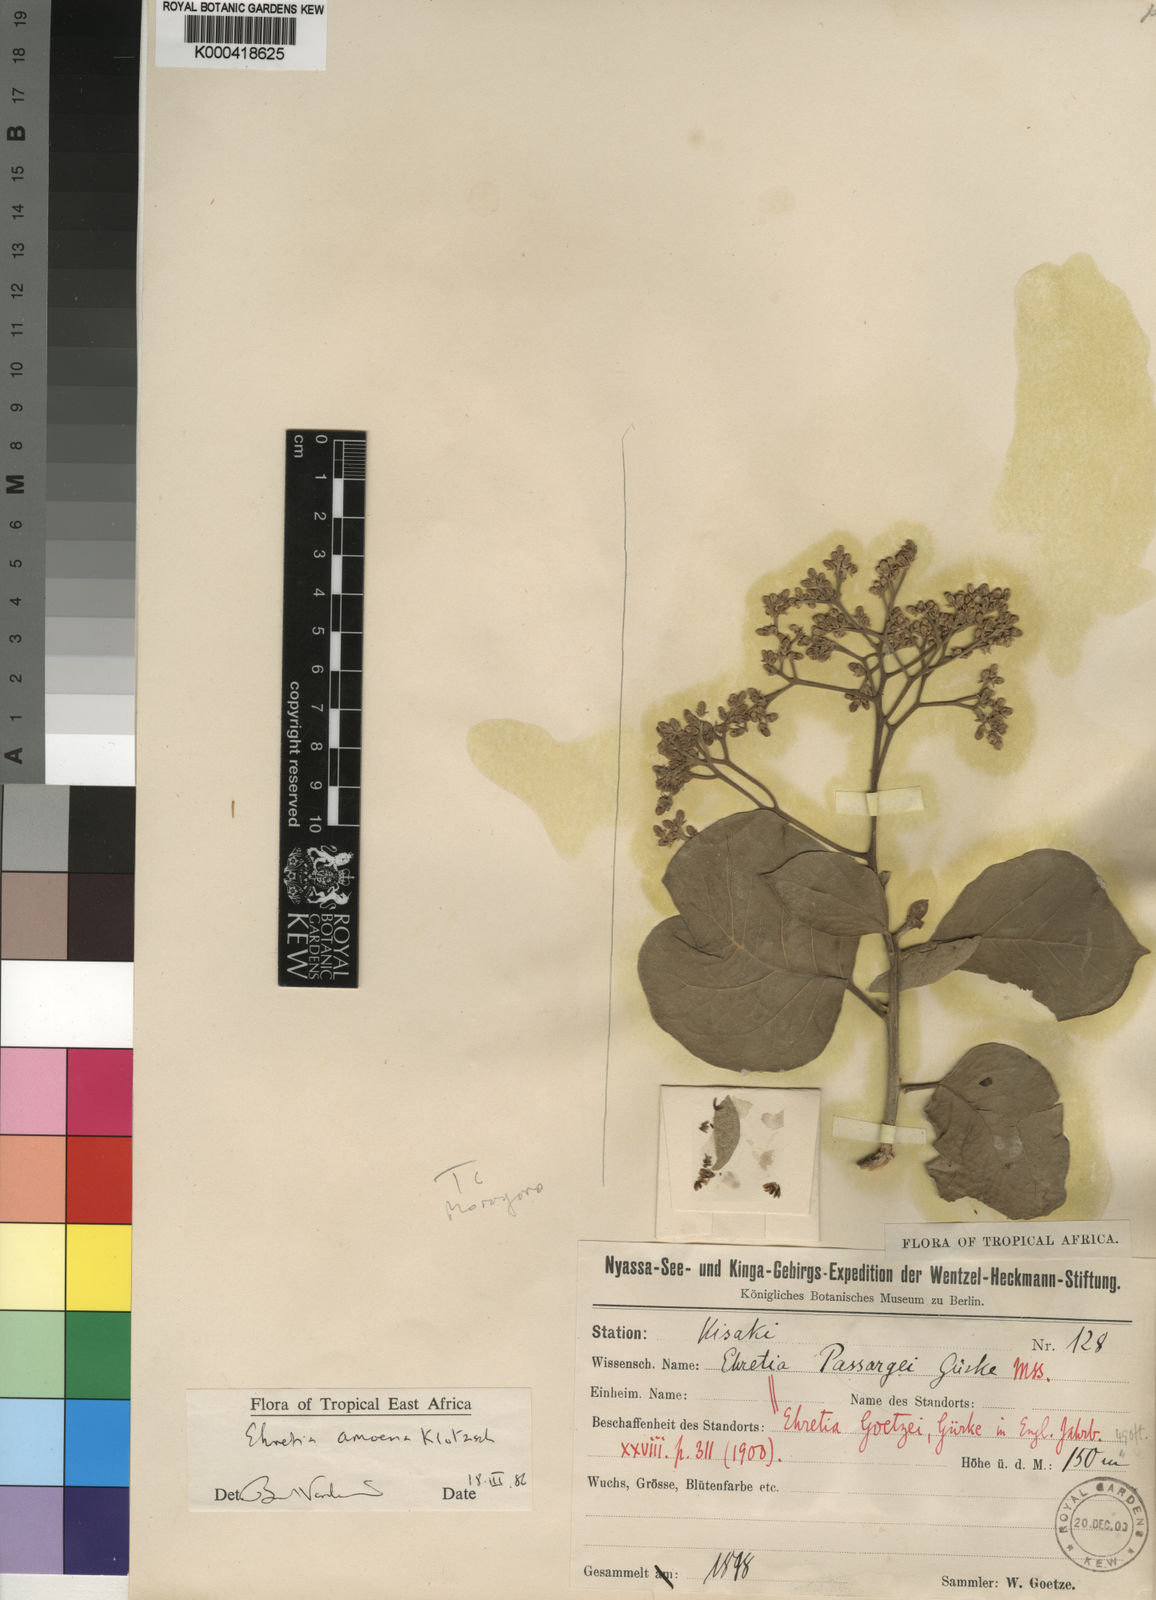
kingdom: Plantae
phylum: Tracheophyta
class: Magnoliopsida
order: Boraginales
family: Ehretiaceae
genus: Ehretia
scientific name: Ehretia amoena
